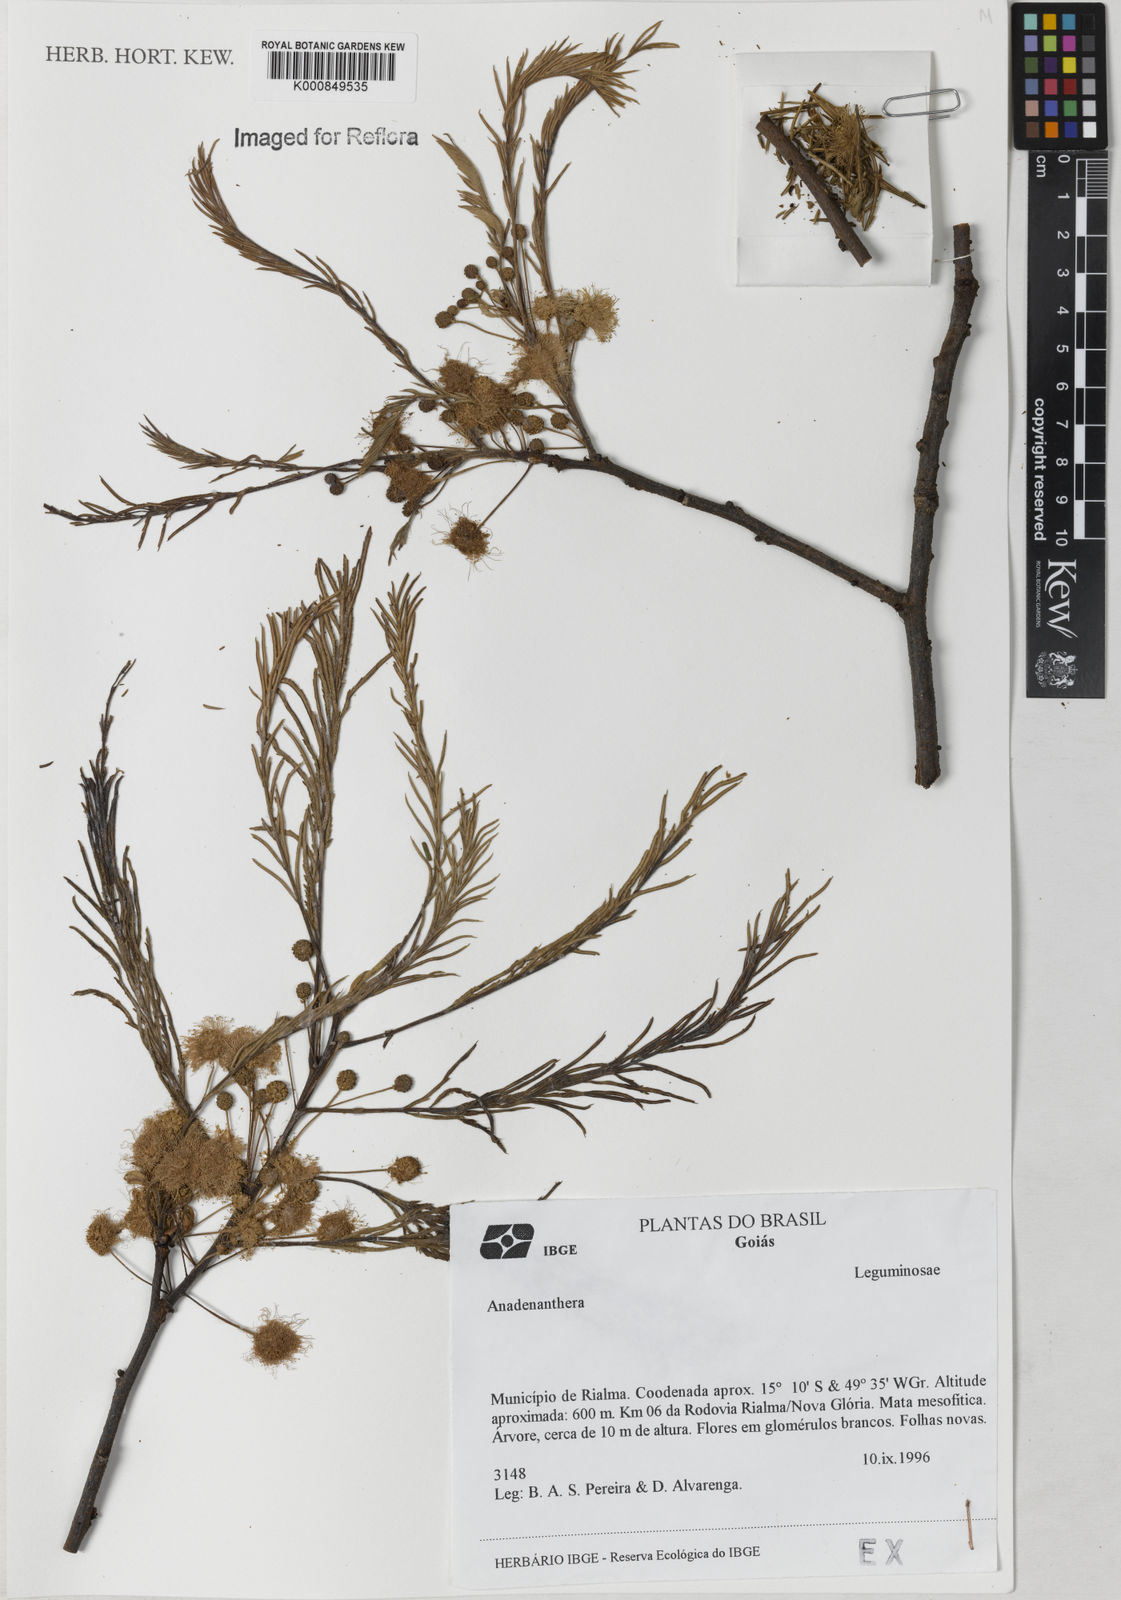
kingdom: Plantae
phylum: Tracheophyta
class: Magnoliopsida
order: Fabales
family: Fabaceae
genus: Anadenanthera
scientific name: Anadenanthera
